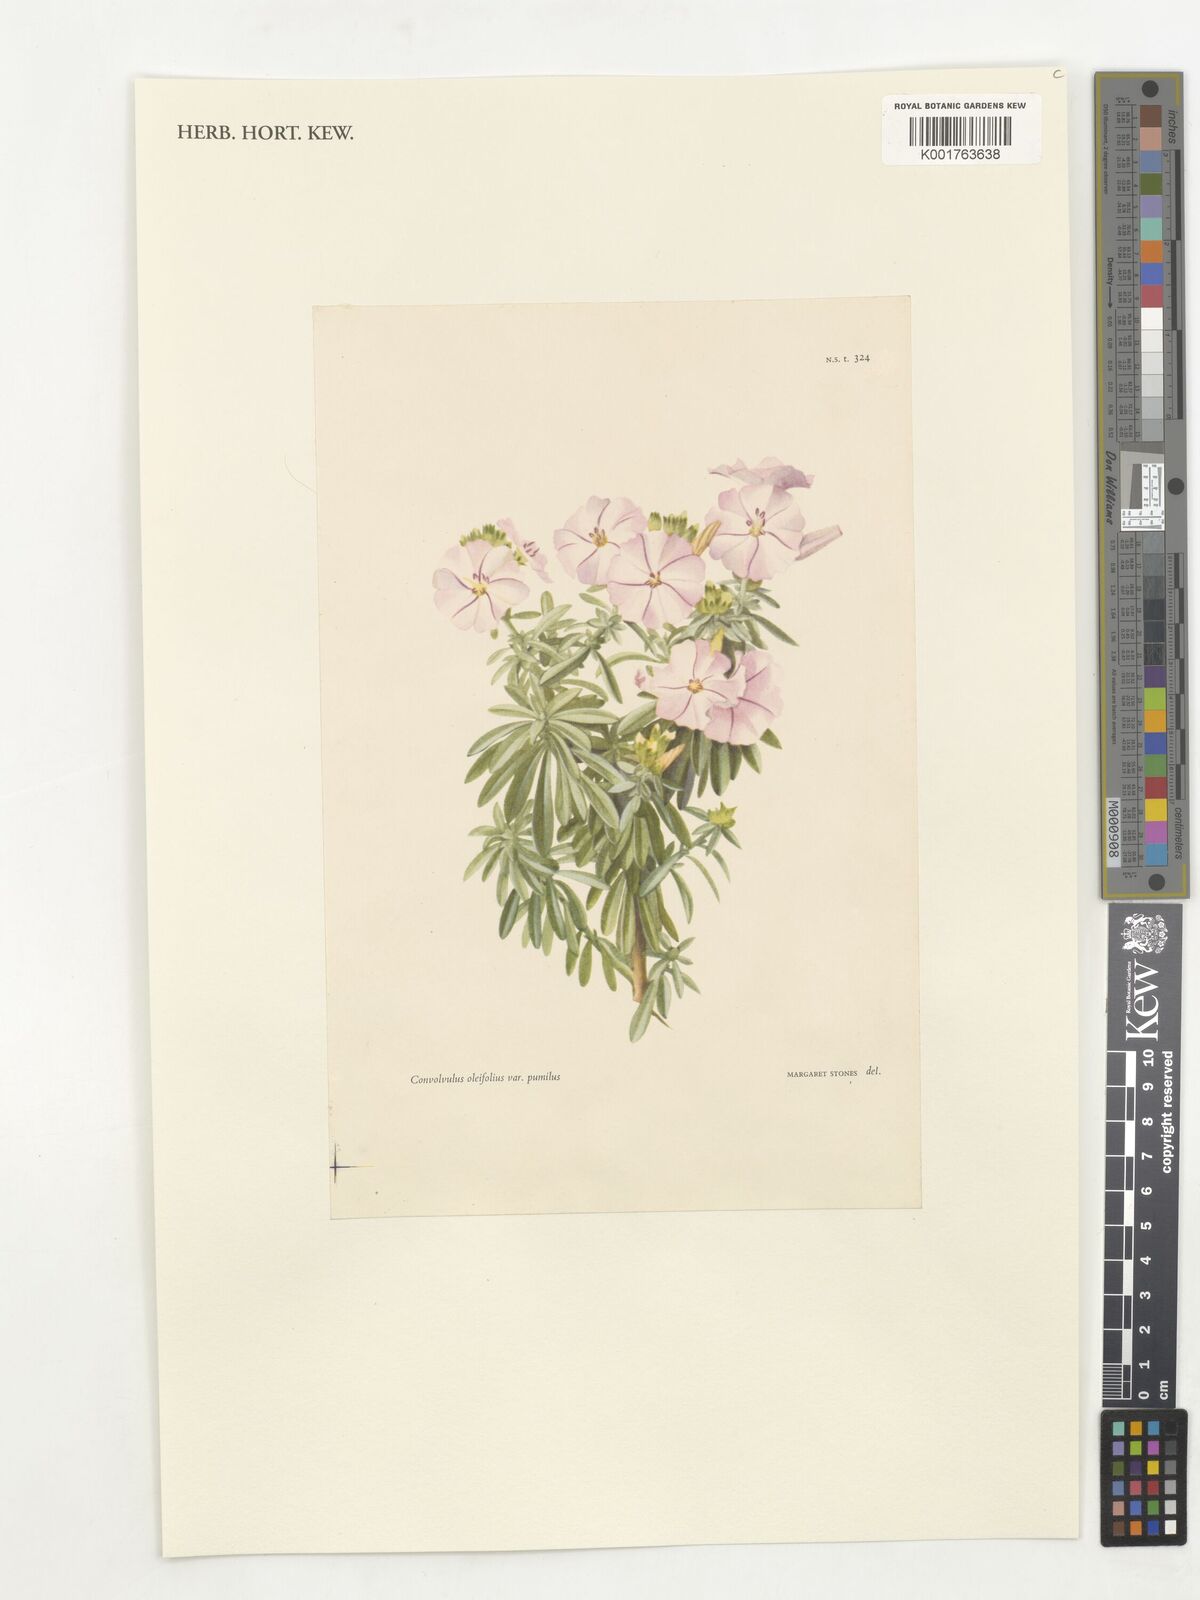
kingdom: Plantae
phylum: Tracheophyta
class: Magnoliopsida
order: Solanales
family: Convolvulaceae
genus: Convolvulus
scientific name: Convolvulus oleifolius
